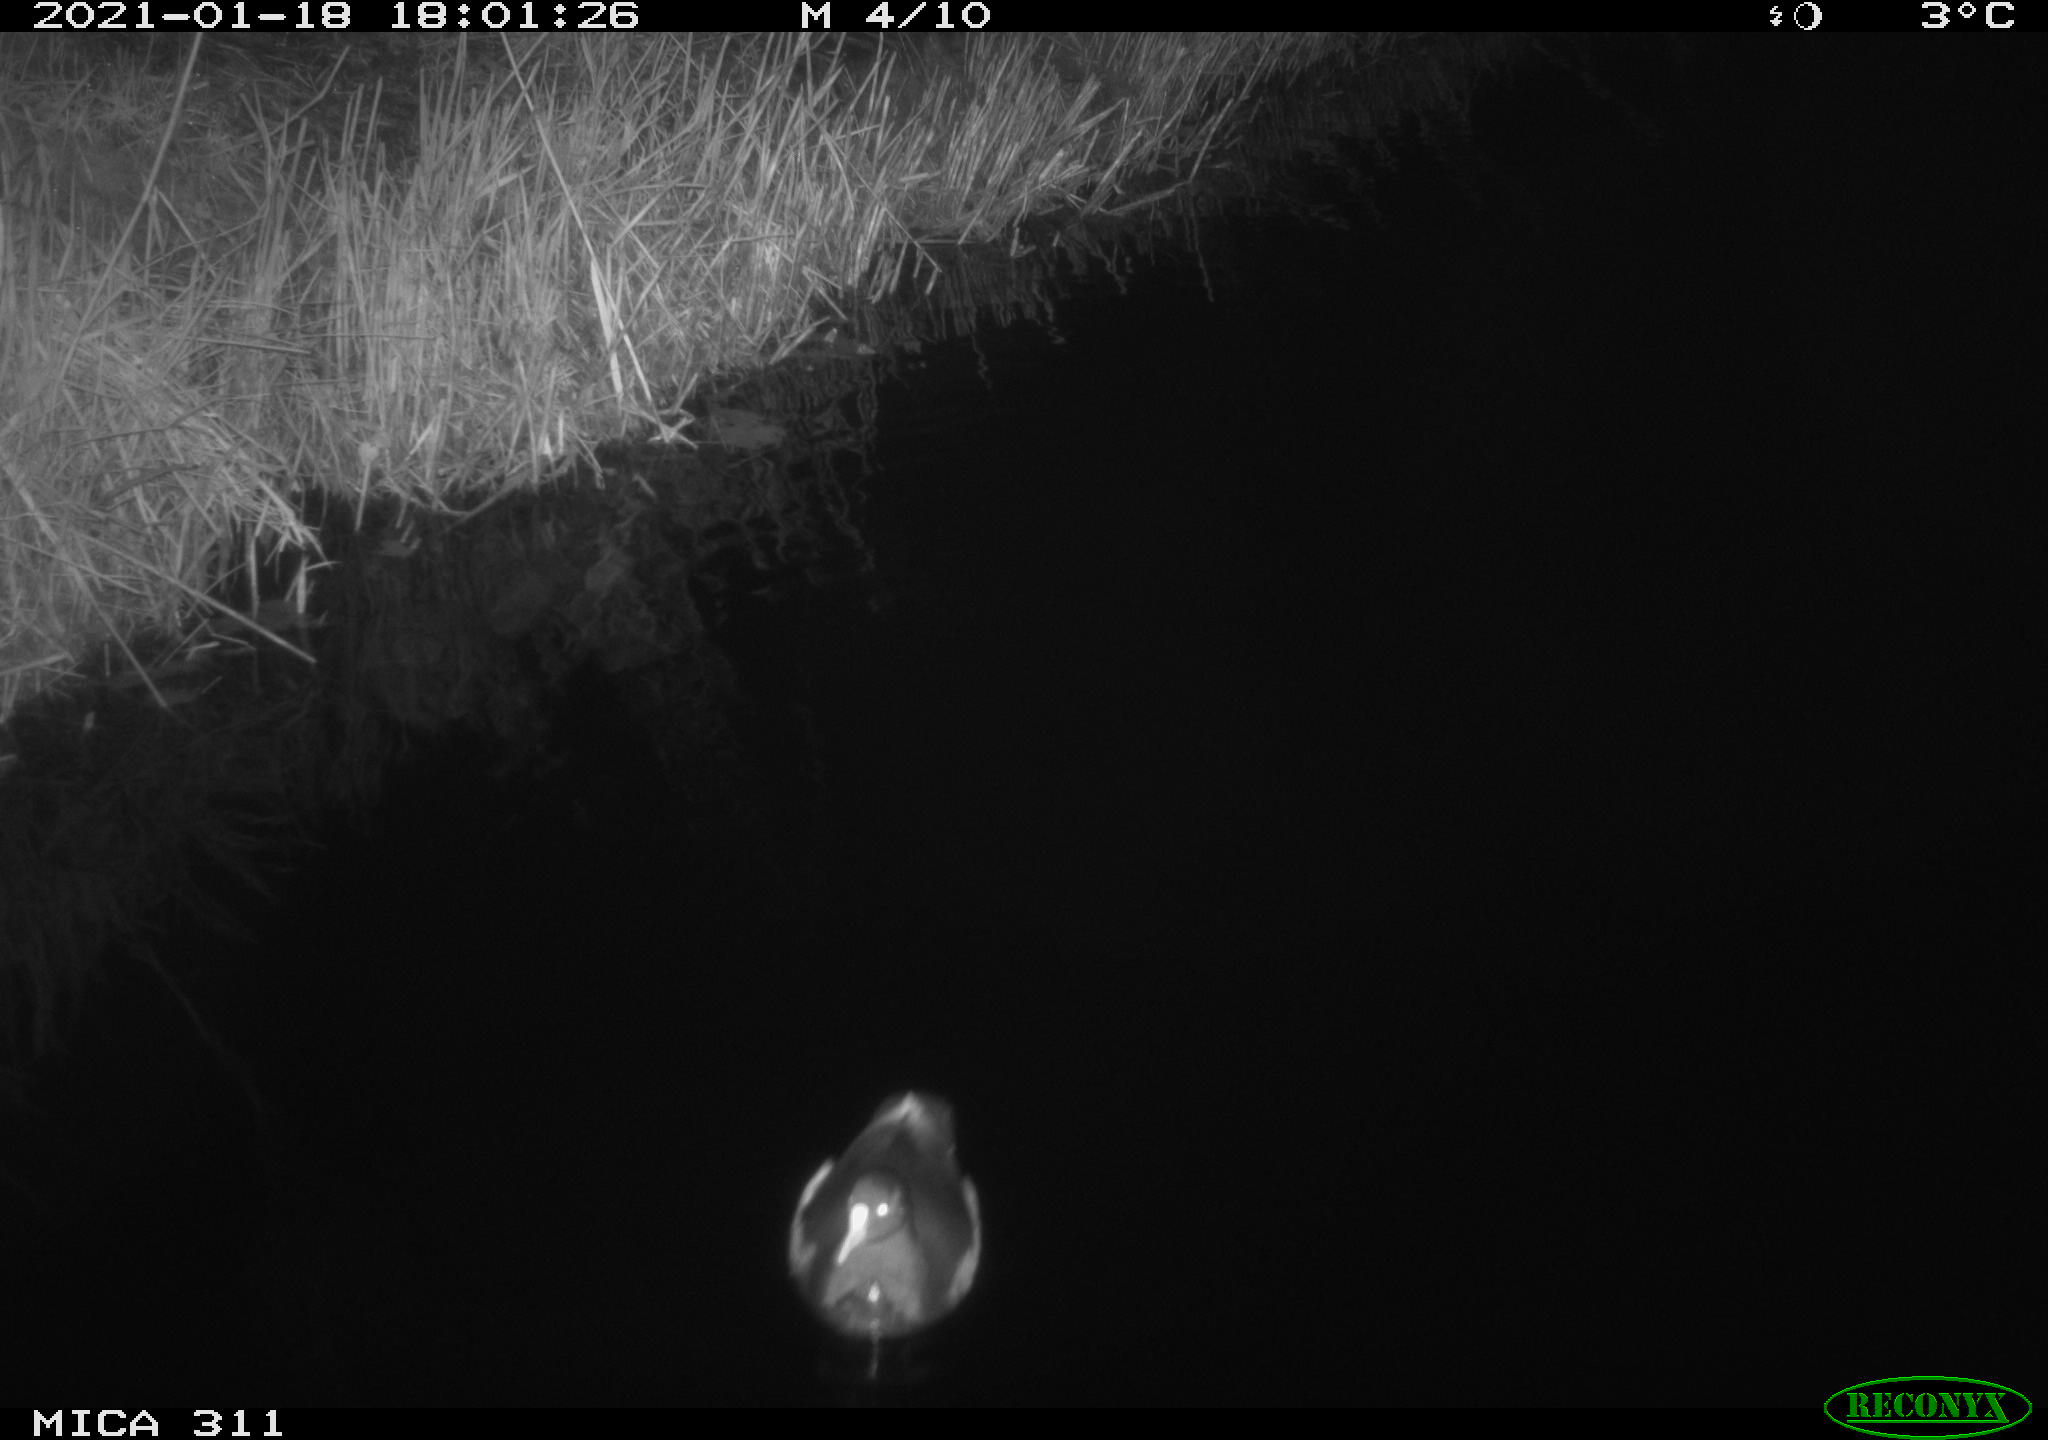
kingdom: Animalia
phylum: Chordata
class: Aves
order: Gruiformes
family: Rallidae
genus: Gallinula
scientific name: Gallinula chloropus
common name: Common moorhen
